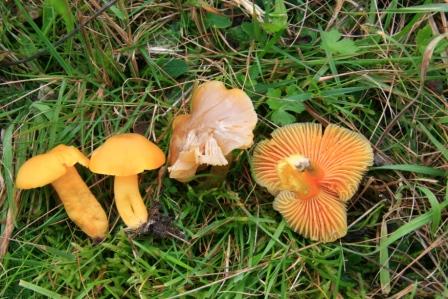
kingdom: Fungi
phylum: Basidiomycota
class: Agaricomycetes
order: Agaricales
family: Hygrophoraceae
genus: Hygrocybe
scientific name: Hygrocybe quieta
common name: tæge-vokshat
